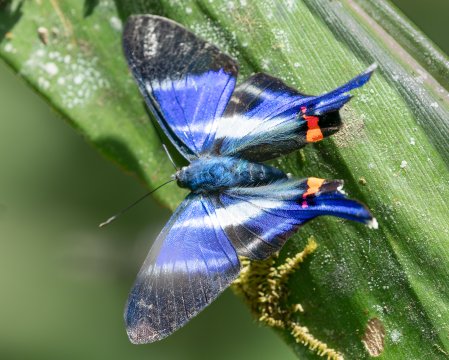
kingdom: Animalia
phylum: Arthropoda
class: Insecta
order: Lepidoptera
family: Riodinidae
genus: Rhetus
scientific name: Rhetus dysonii
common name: Blue Doctor
